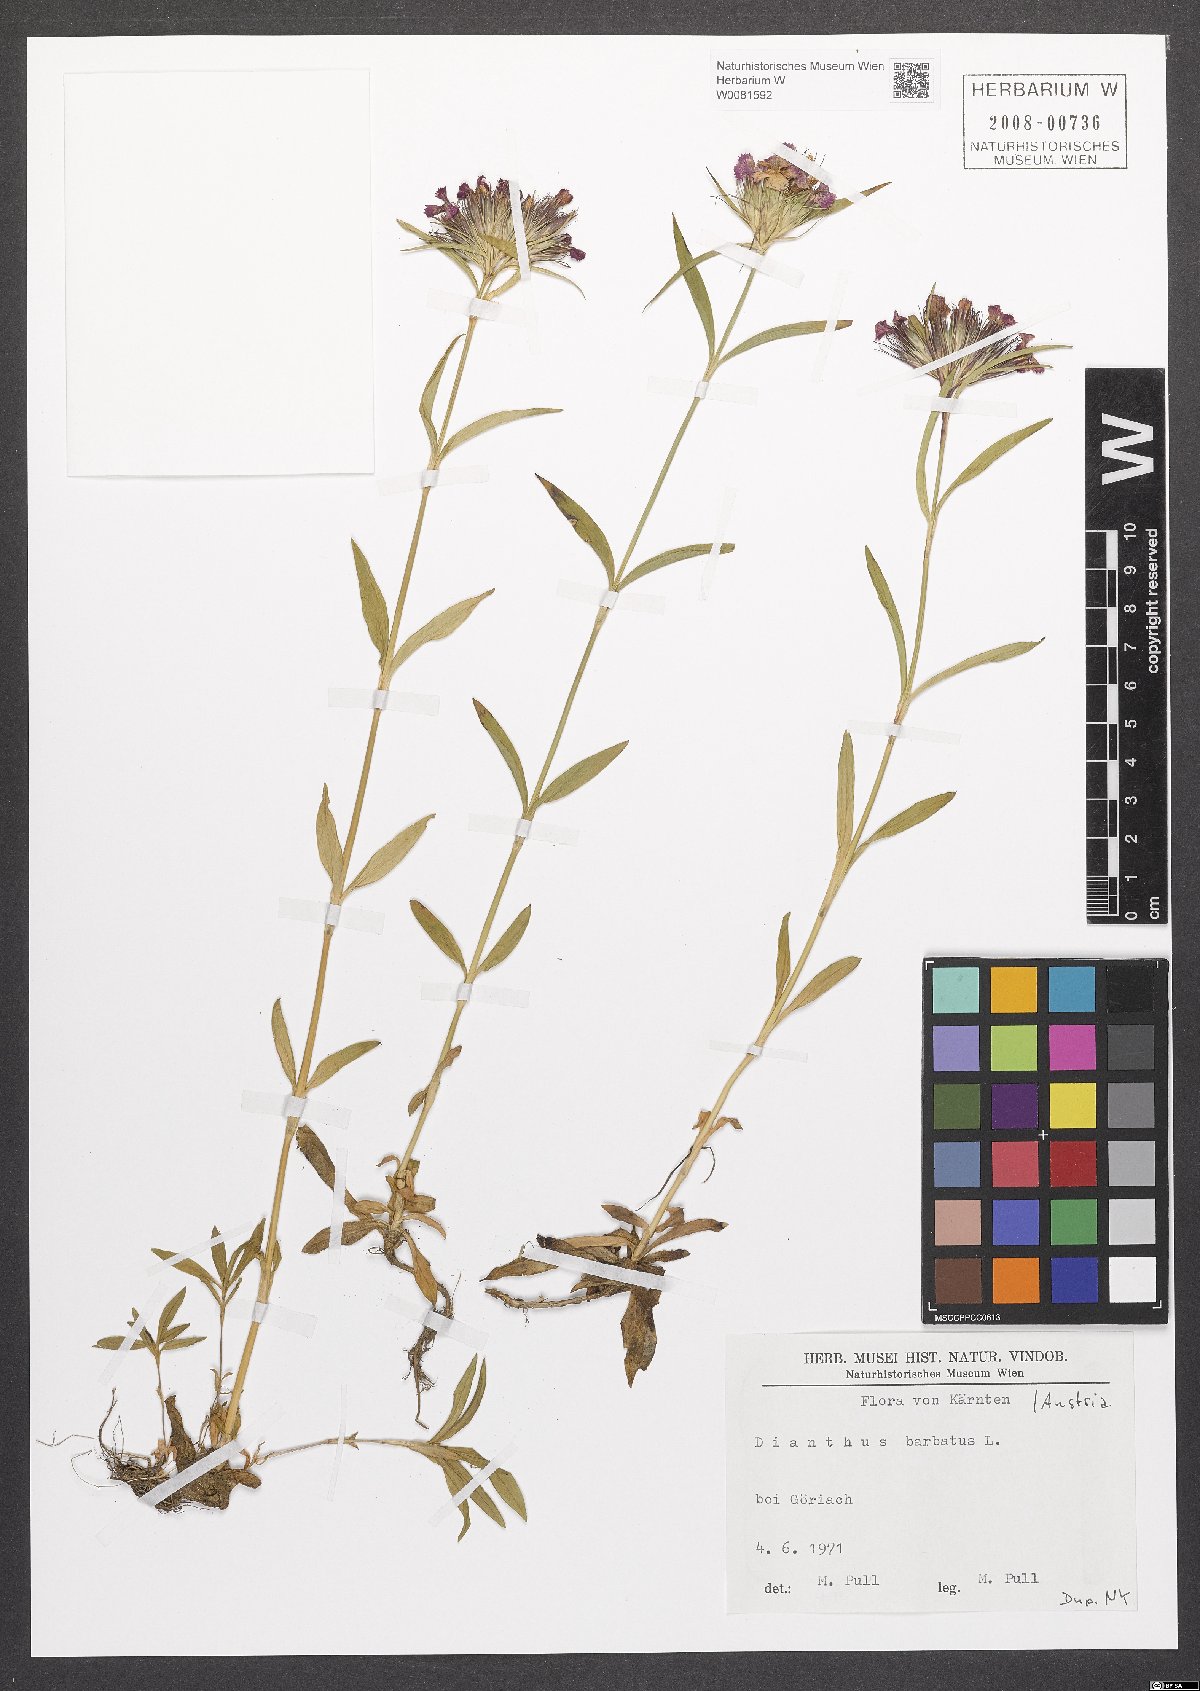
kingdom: Plantae
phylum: Tracheophyta
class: Magnoliopsida
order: Caryophyllales
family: Caryophyllaceae
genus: Dianthus
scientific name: Dianthus barbatus
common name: Sweet-william
